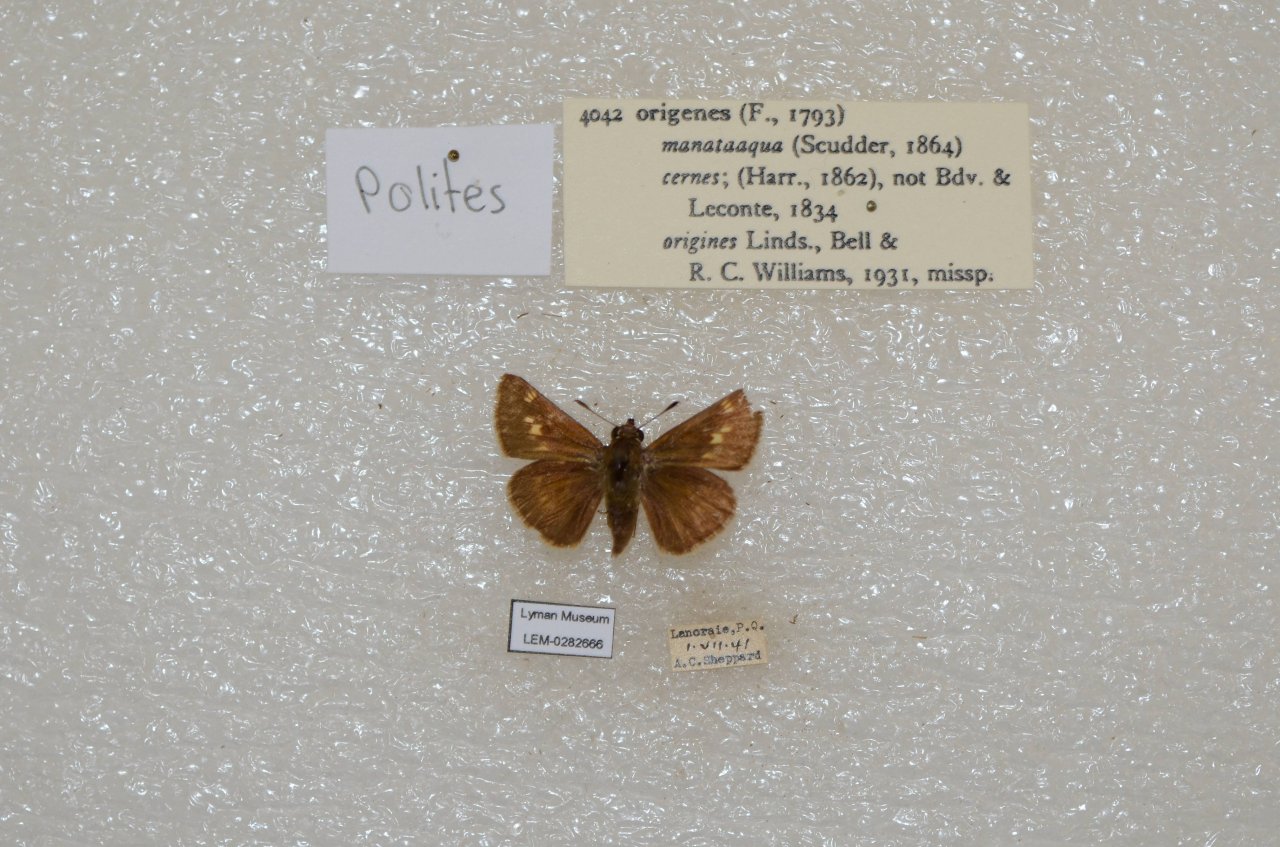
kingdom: Animalia
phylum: Arthropoda
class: Insecta
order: Lepidoptera
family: Hesperiidae
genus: Polites
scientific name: Polites
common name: Crossline Skipper
